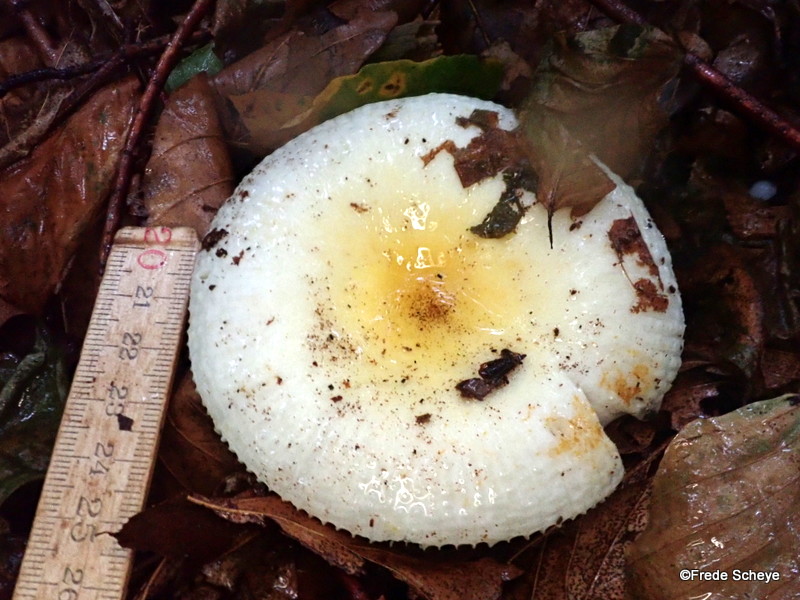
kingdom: Fungi
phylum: Basidiomycota
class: Agaricomycetes
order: Russulales
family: Russulaceae
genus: Russula
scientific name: Russula solaris
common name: sol-skørhat
